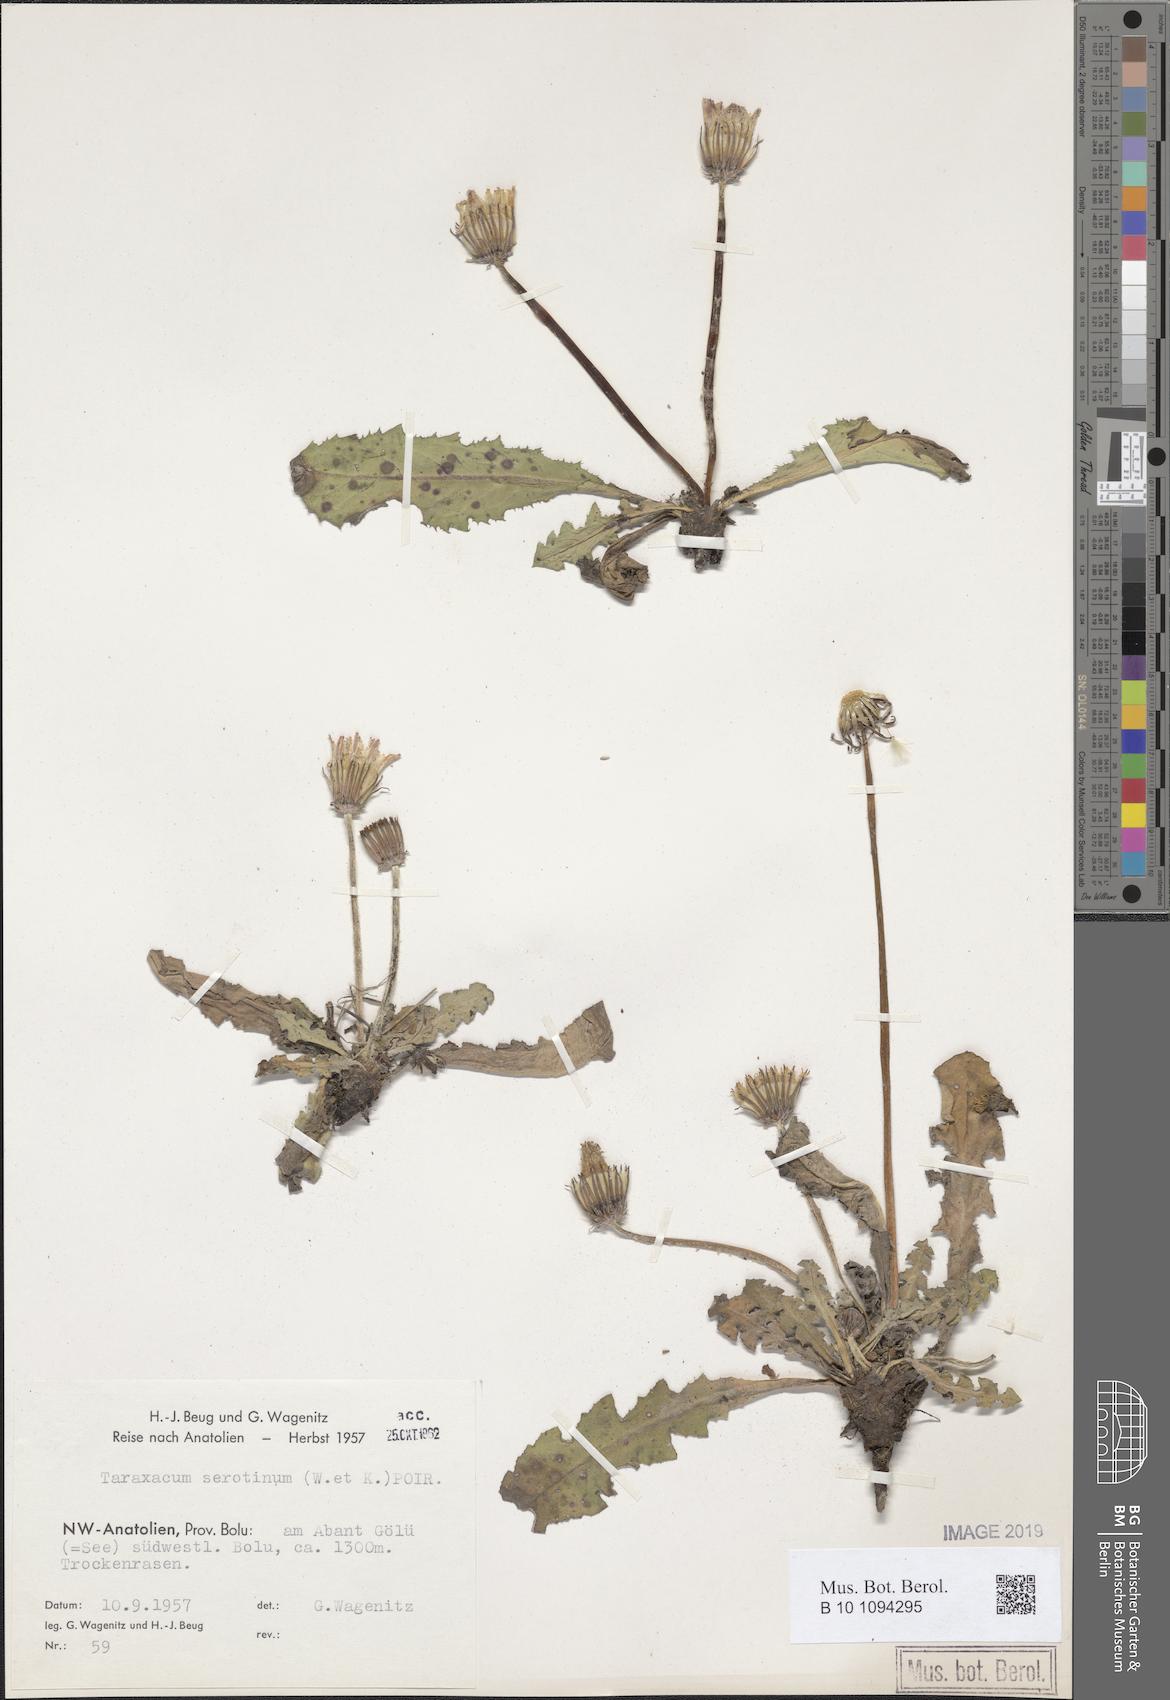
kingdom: Plantae
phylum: Tracheophyta
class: Magnoliopsida
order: Asterales
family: Asteraceae
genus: Taraxacum
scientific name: Taraxacum serotinum
